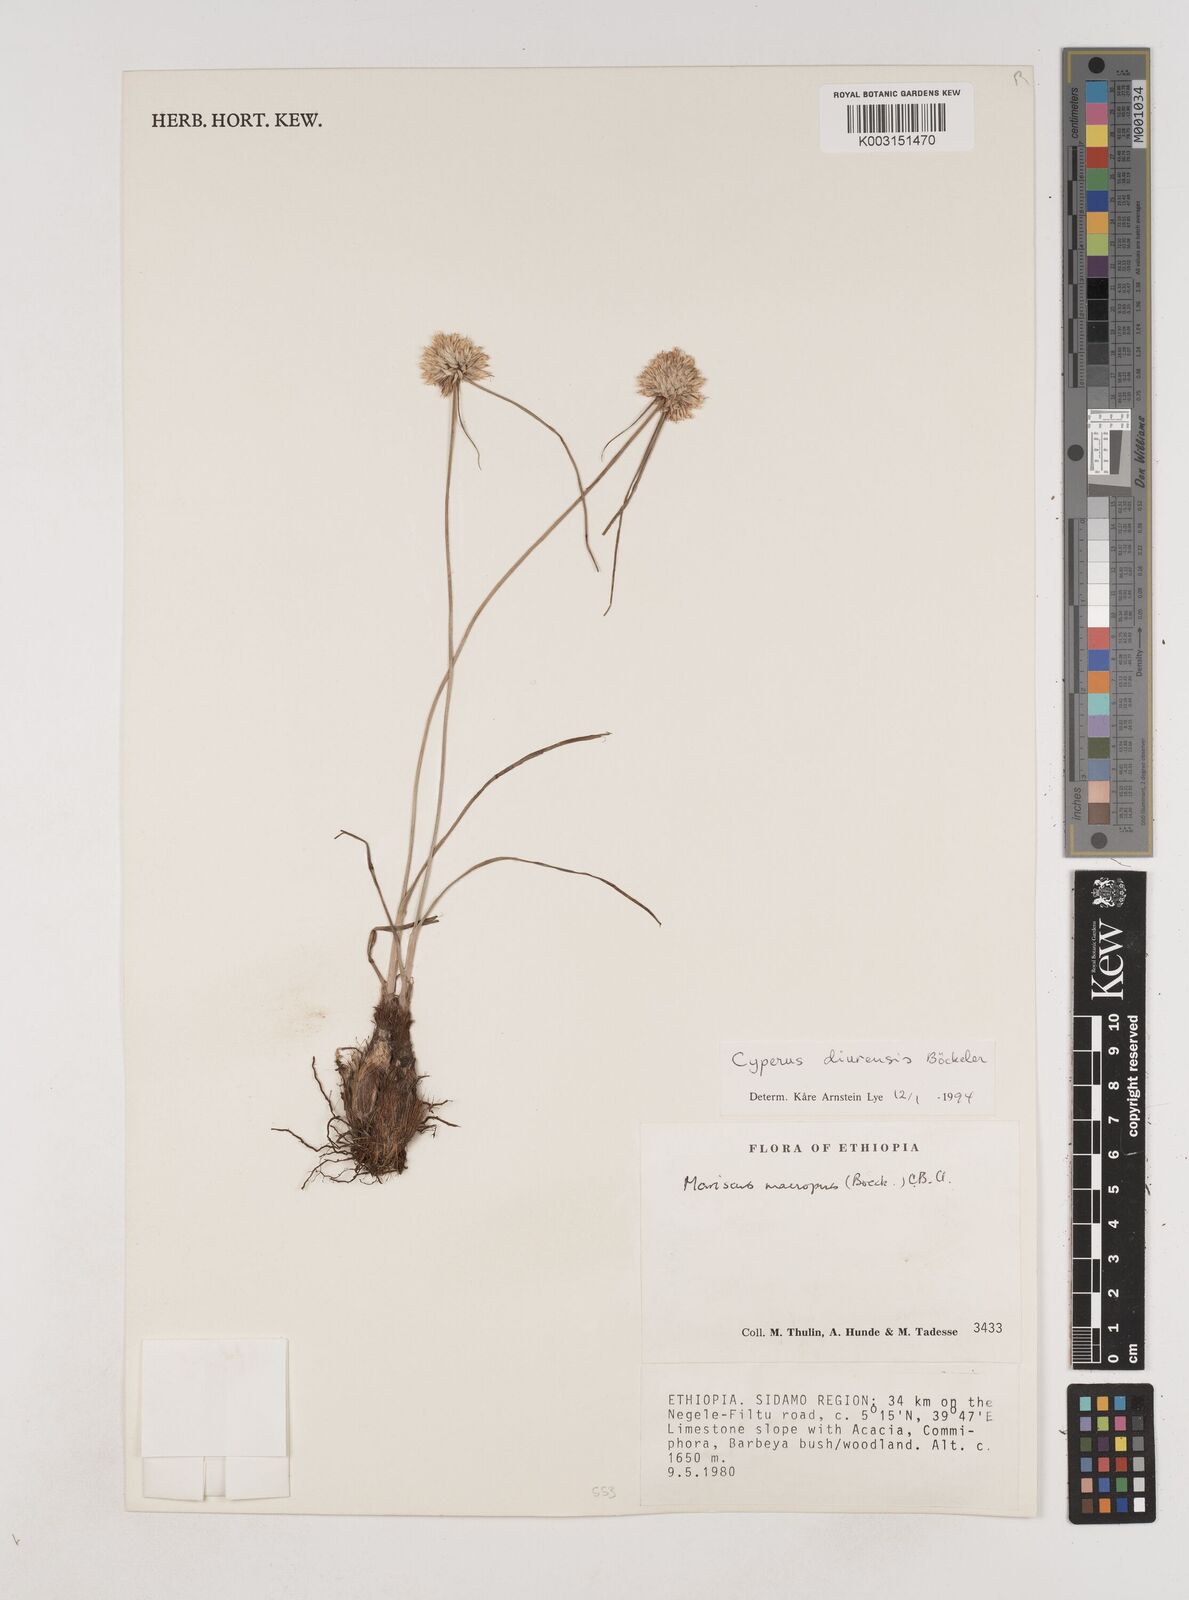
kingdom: Plantae
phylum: Tracheophyta
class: Liliopsida
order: Poales
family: Cyperaceae
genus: Cyperus
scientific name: Cyperus diurensis
